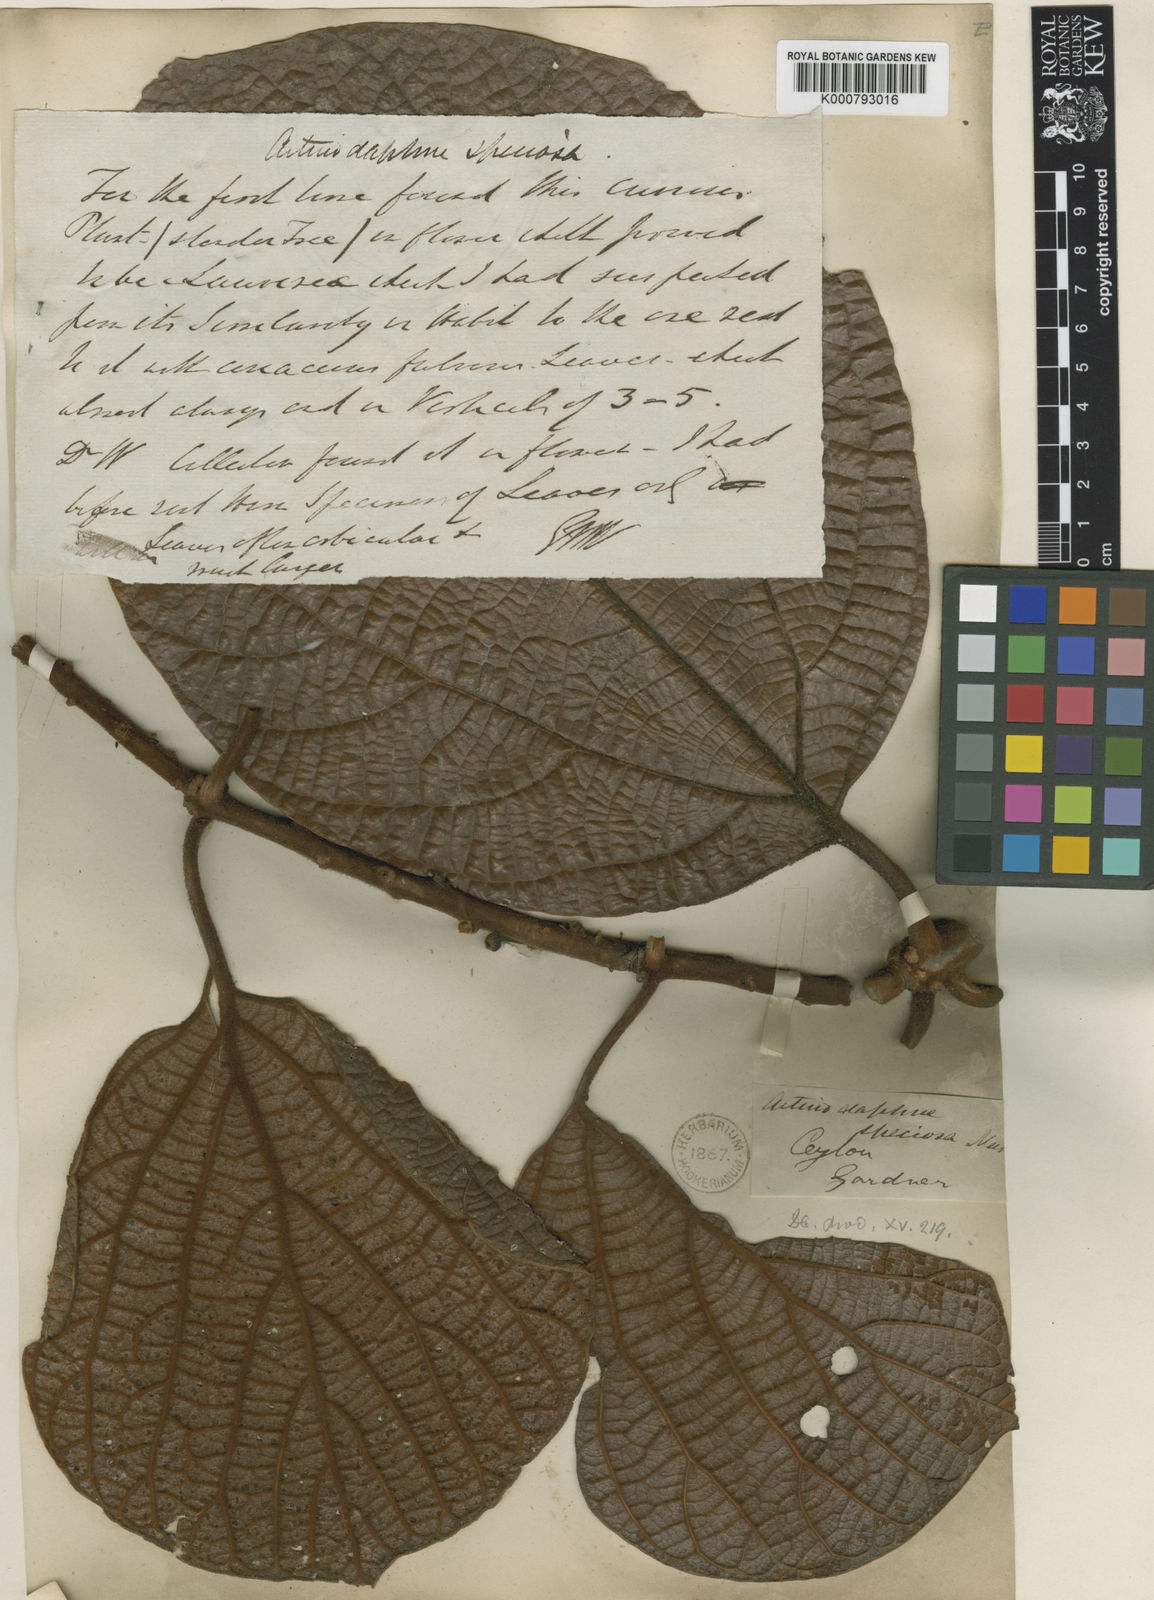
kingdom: Plantae
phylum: Tracheophyta
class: Magnoliopsida
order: Laurales
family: Lauraceae
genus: Actinodaphne
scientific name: Actinodaphne speciosa
